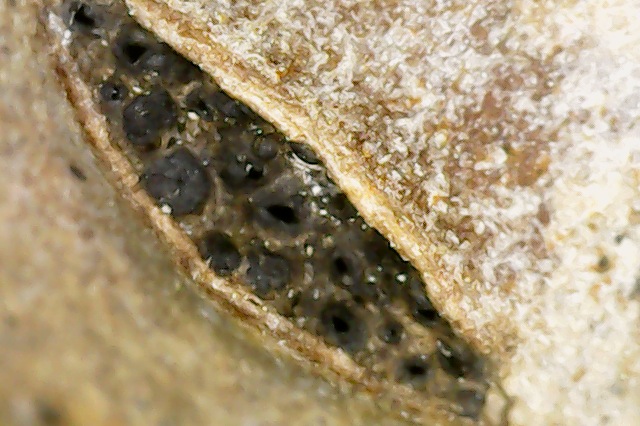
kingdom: Fungi
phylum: Ascomycota
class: Dothideomycetes
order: Pleosporales
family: Lophiostomataceae
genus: Lophiostoma
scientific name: Lophiostoma myriocarpum
